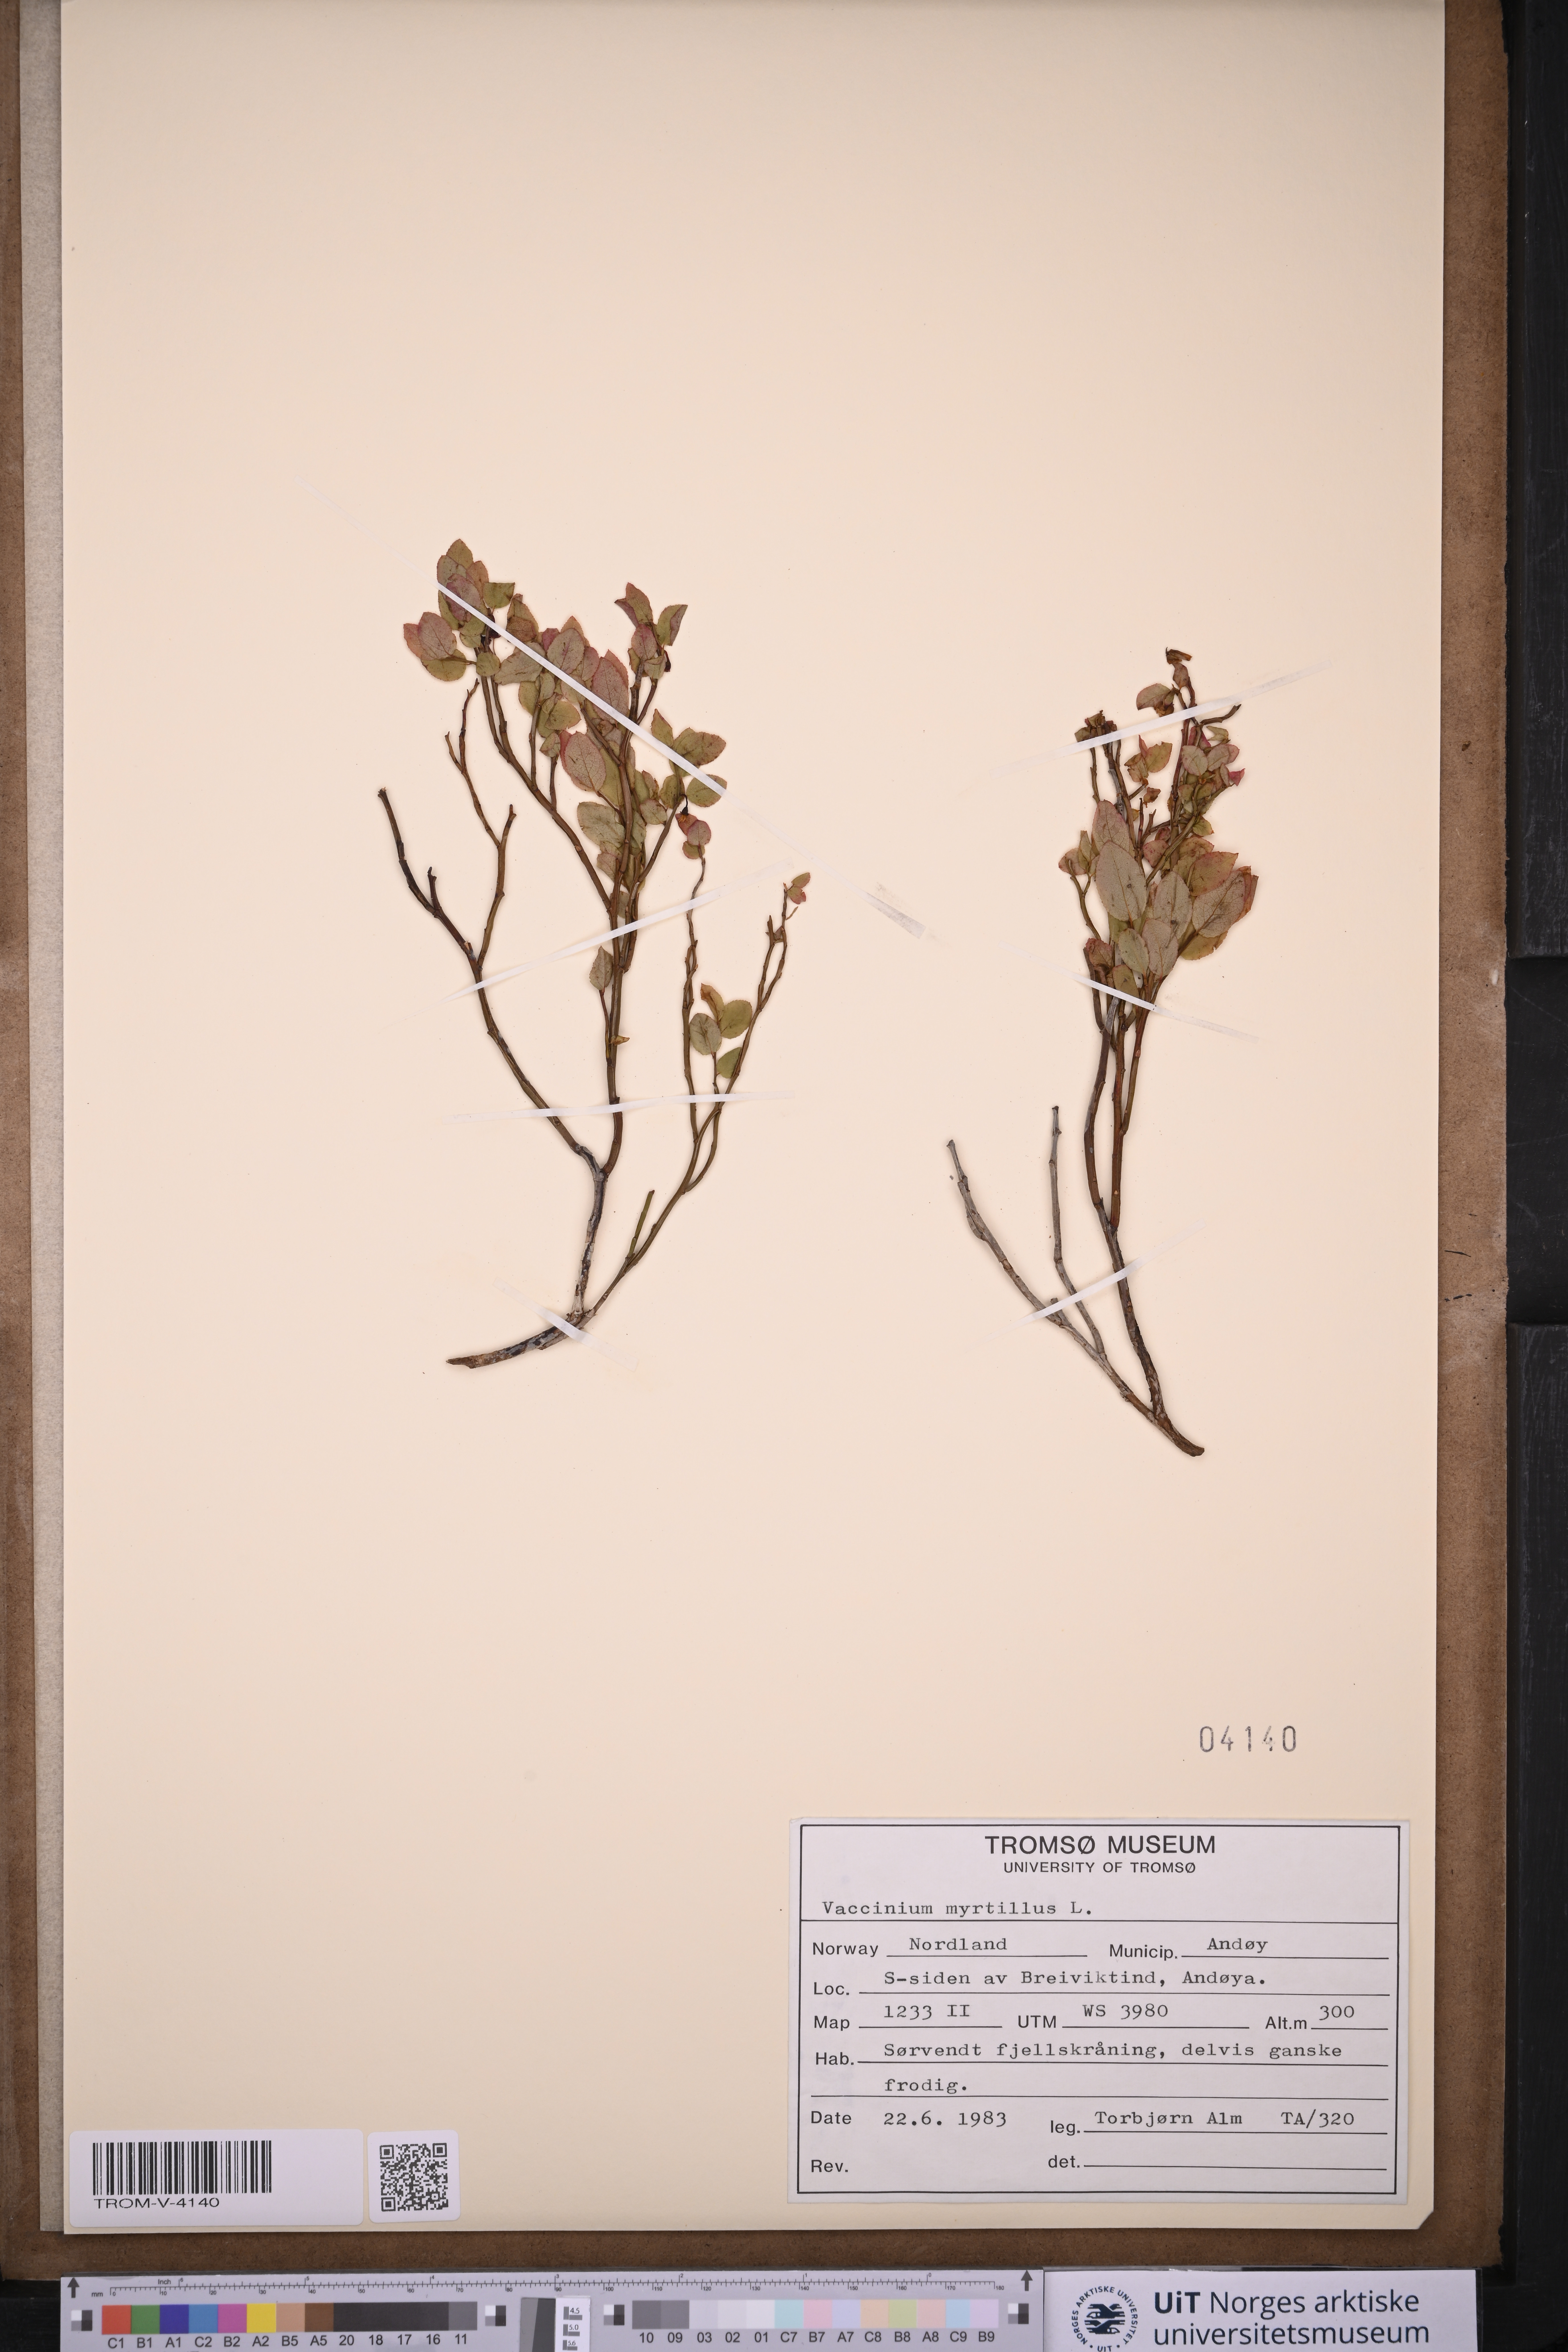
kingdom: Plantae
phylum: Tracheophyta
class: Magnoliopsida
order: Ericales
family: Ericaceae
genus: Vaccinium
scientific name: Vaccinium myrtillus
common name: Bilberry
